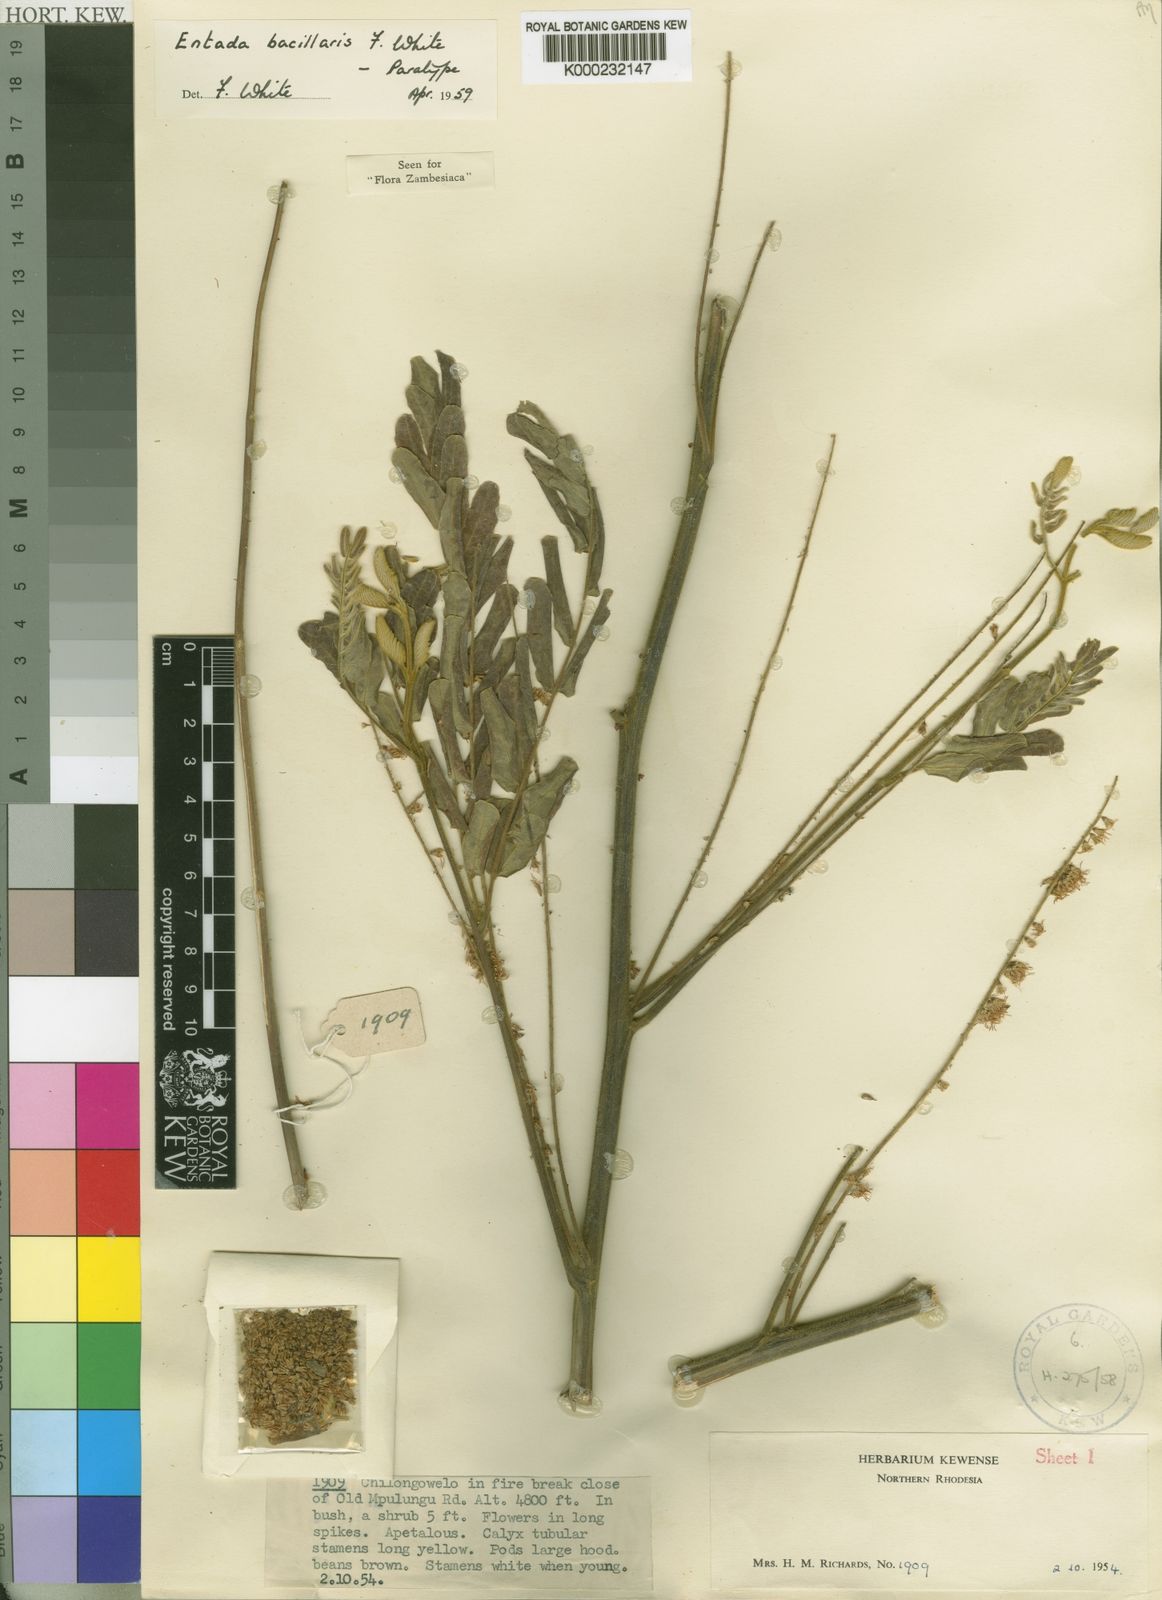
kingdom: Plantae
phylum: Tracheophyta
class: Magnoliopsida
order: Fabales
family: Fabaceae
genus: Entada
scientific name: Entada bacillaris
